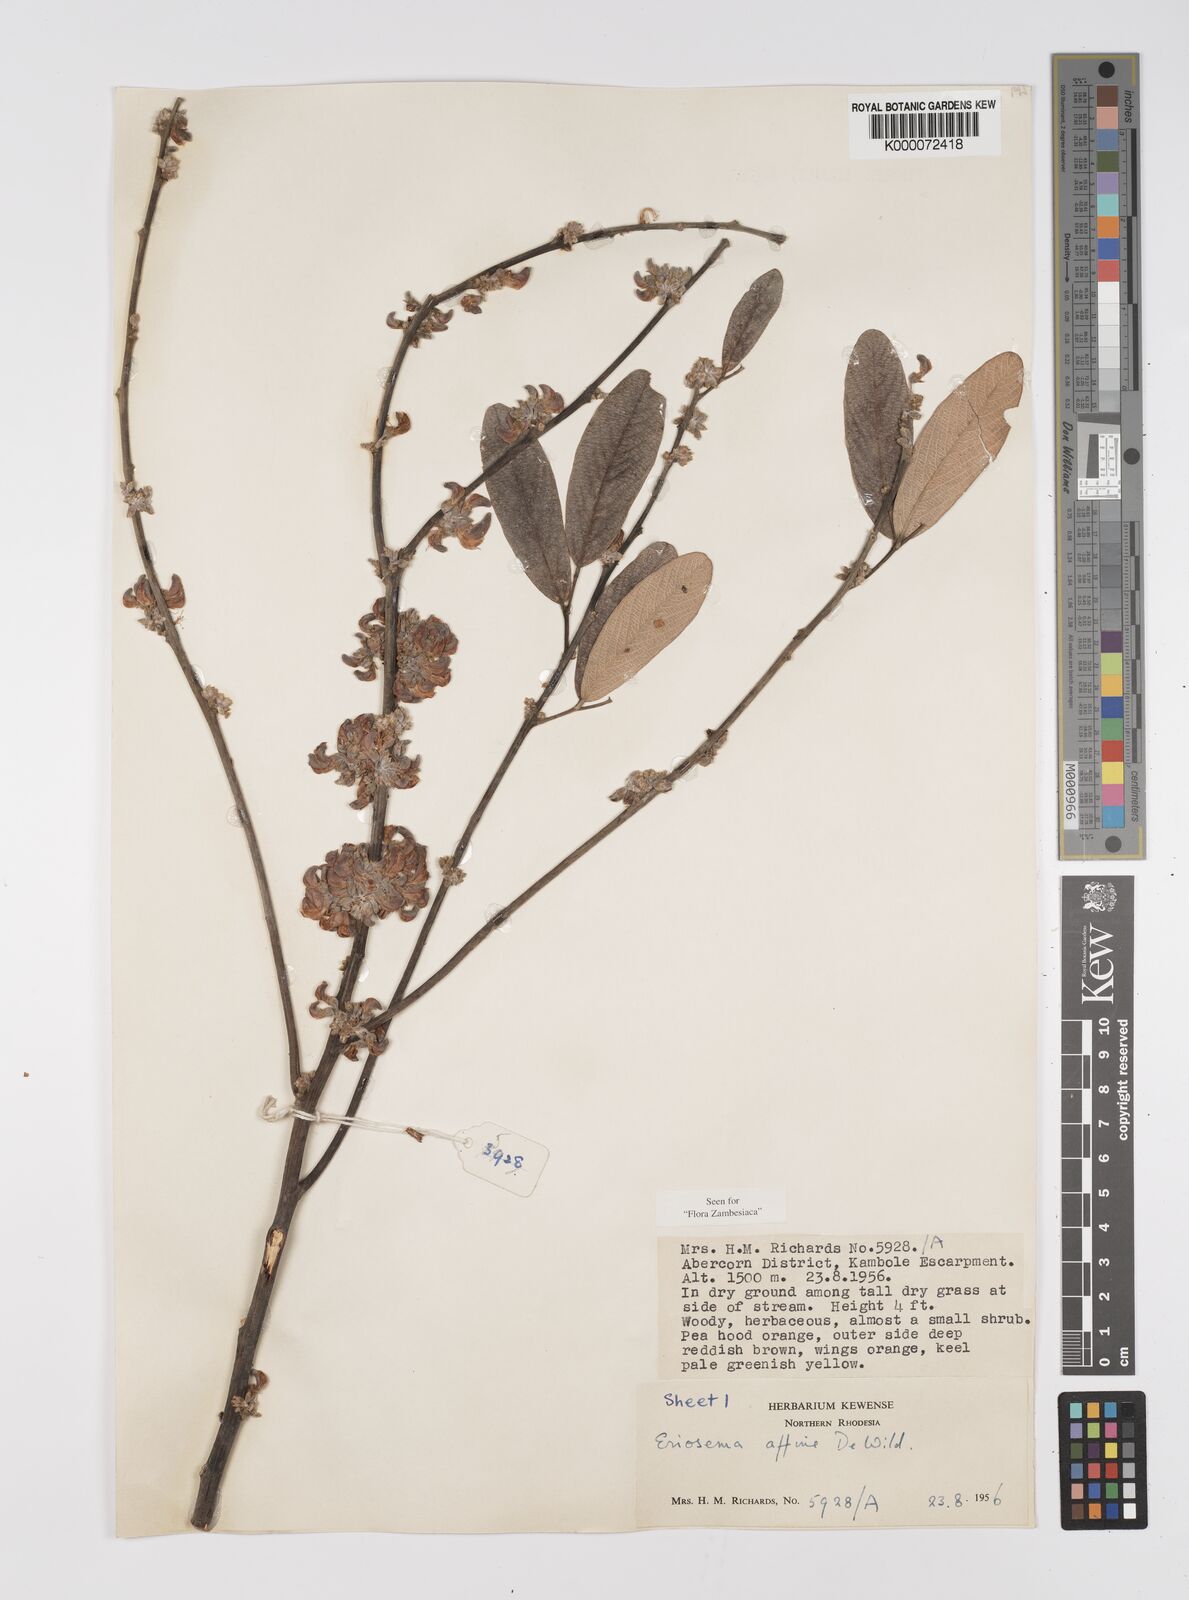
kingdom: Plantae
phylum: Tracheophyta
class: Magnoliopsida
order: Fabales
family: Fabaceae
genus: Eriosema
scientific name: Eriosema affine
